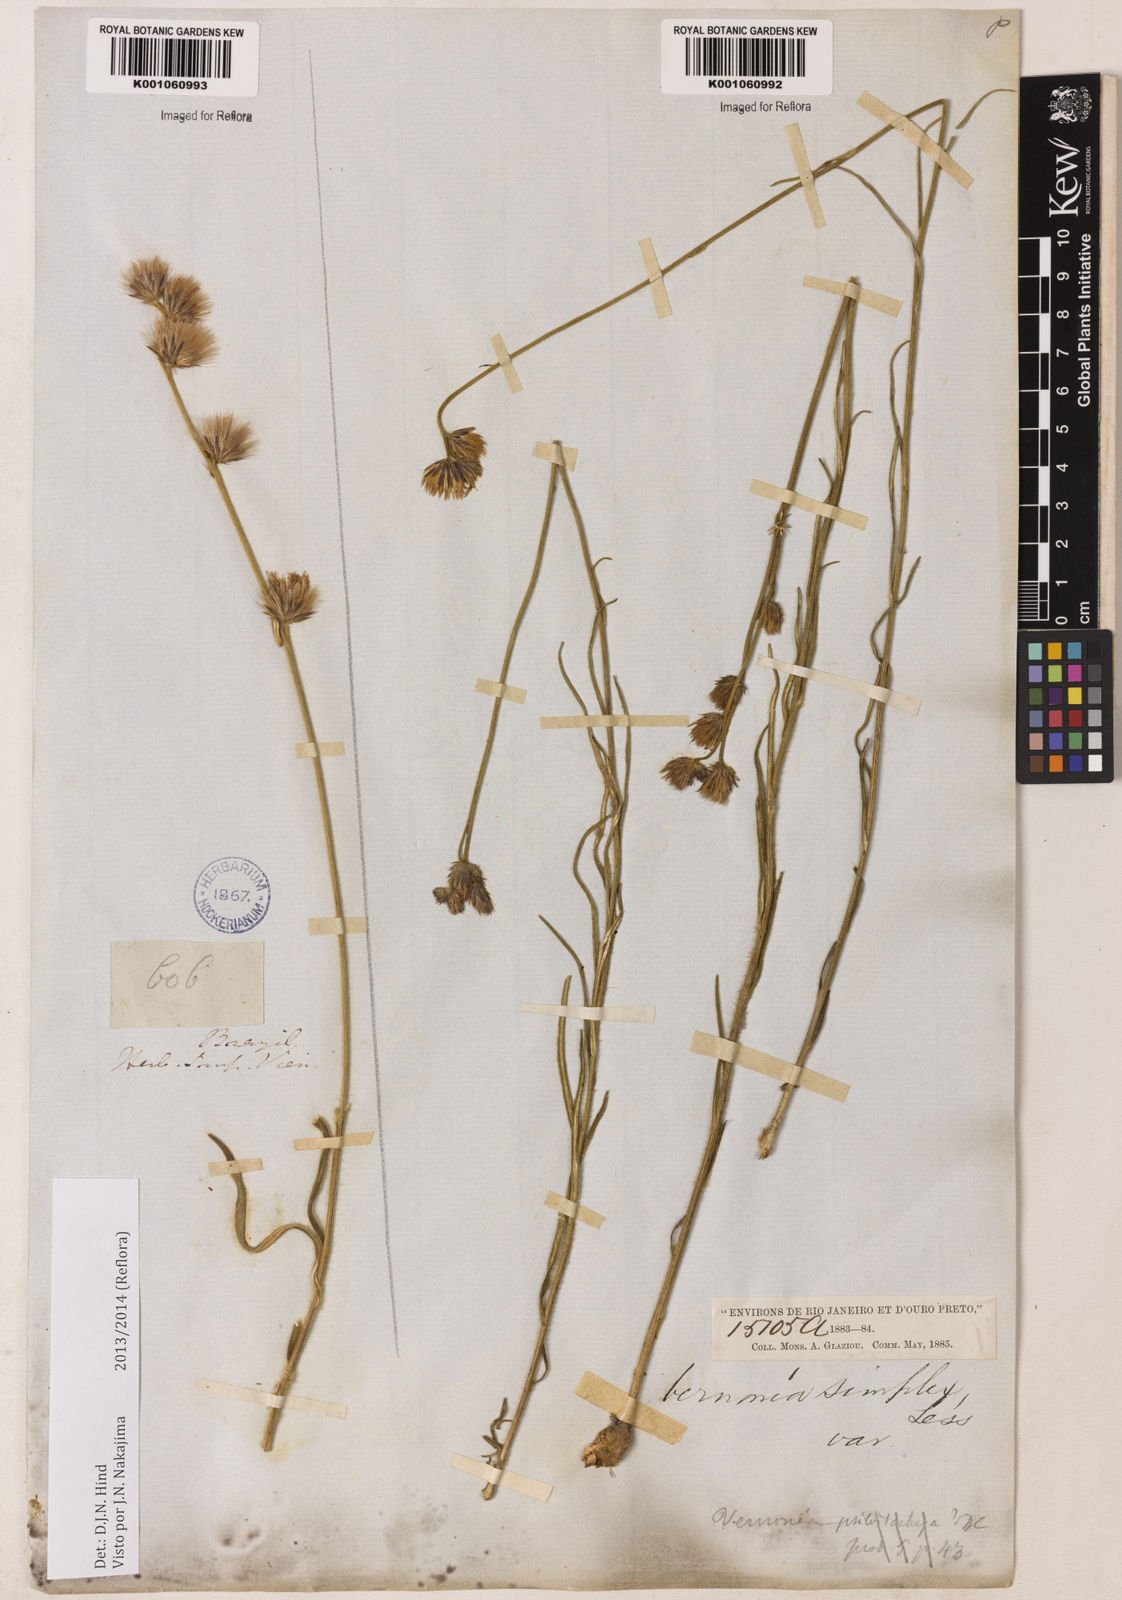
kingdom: Plantae
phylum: Tracheophyta
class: Magnoliopsida
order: Asterales
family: Asteraceae
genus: Chrysolaena
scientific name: Chrysolaena simplex
